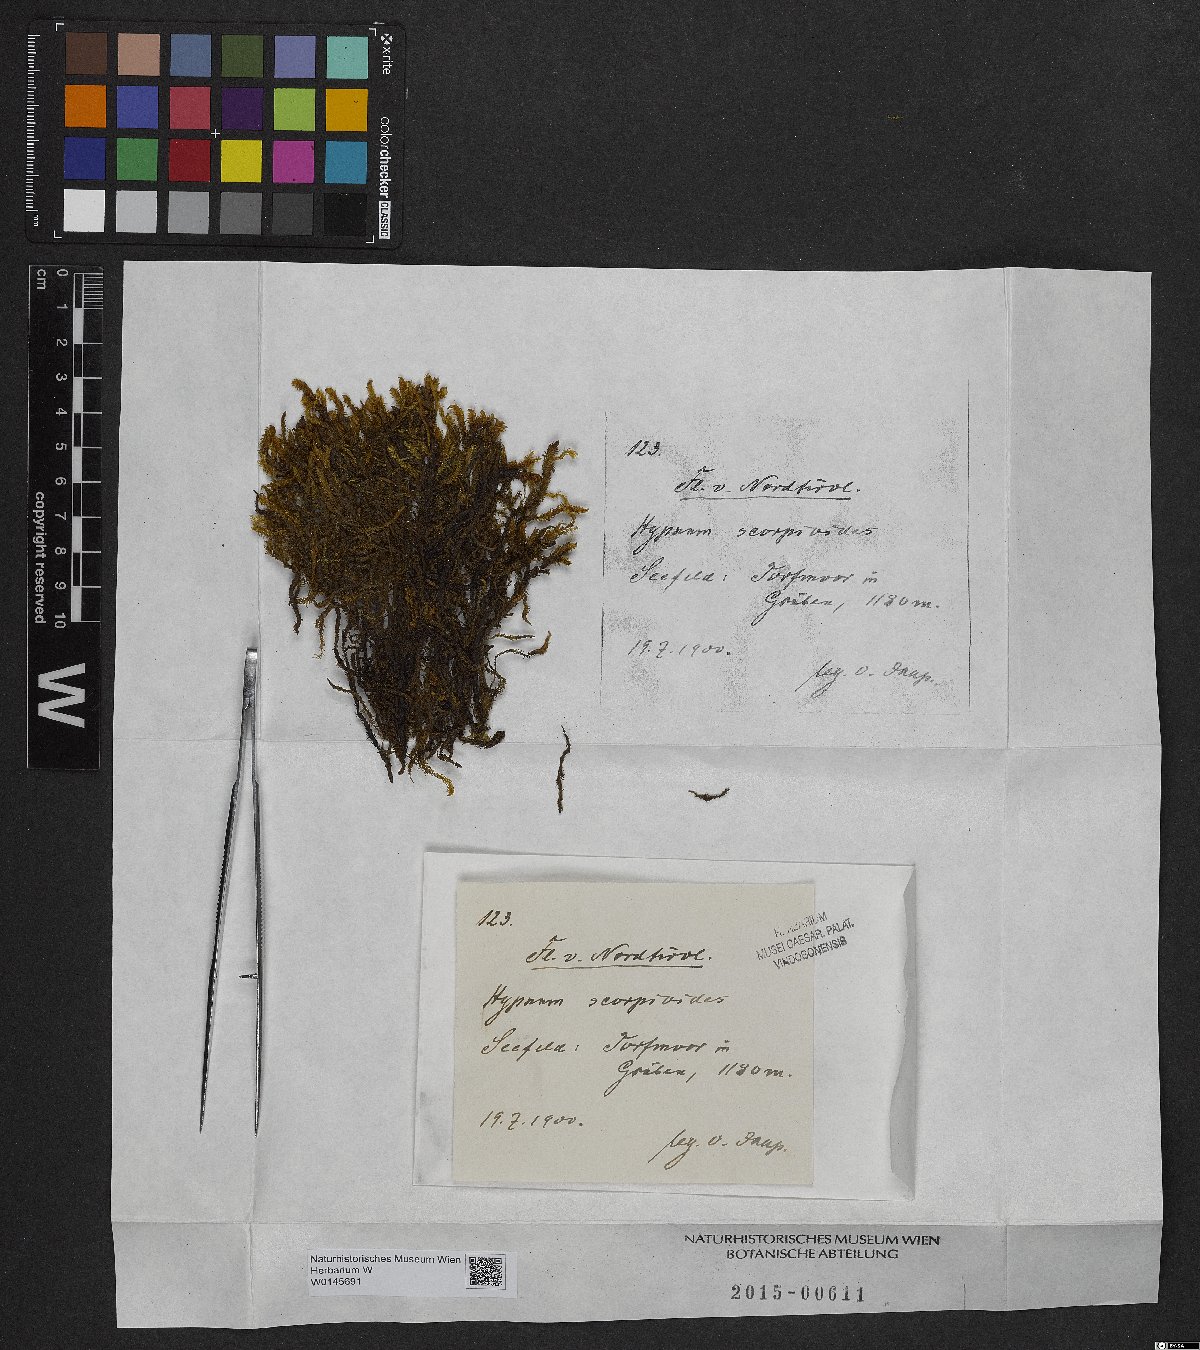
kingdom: Plantae
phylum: Bryophyta
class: Bryopsida
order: Hypnales
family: Scorpidiaceae
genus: Scorpidium
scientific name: Scorpidium scorpioides
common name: Hooked scorpion moss
